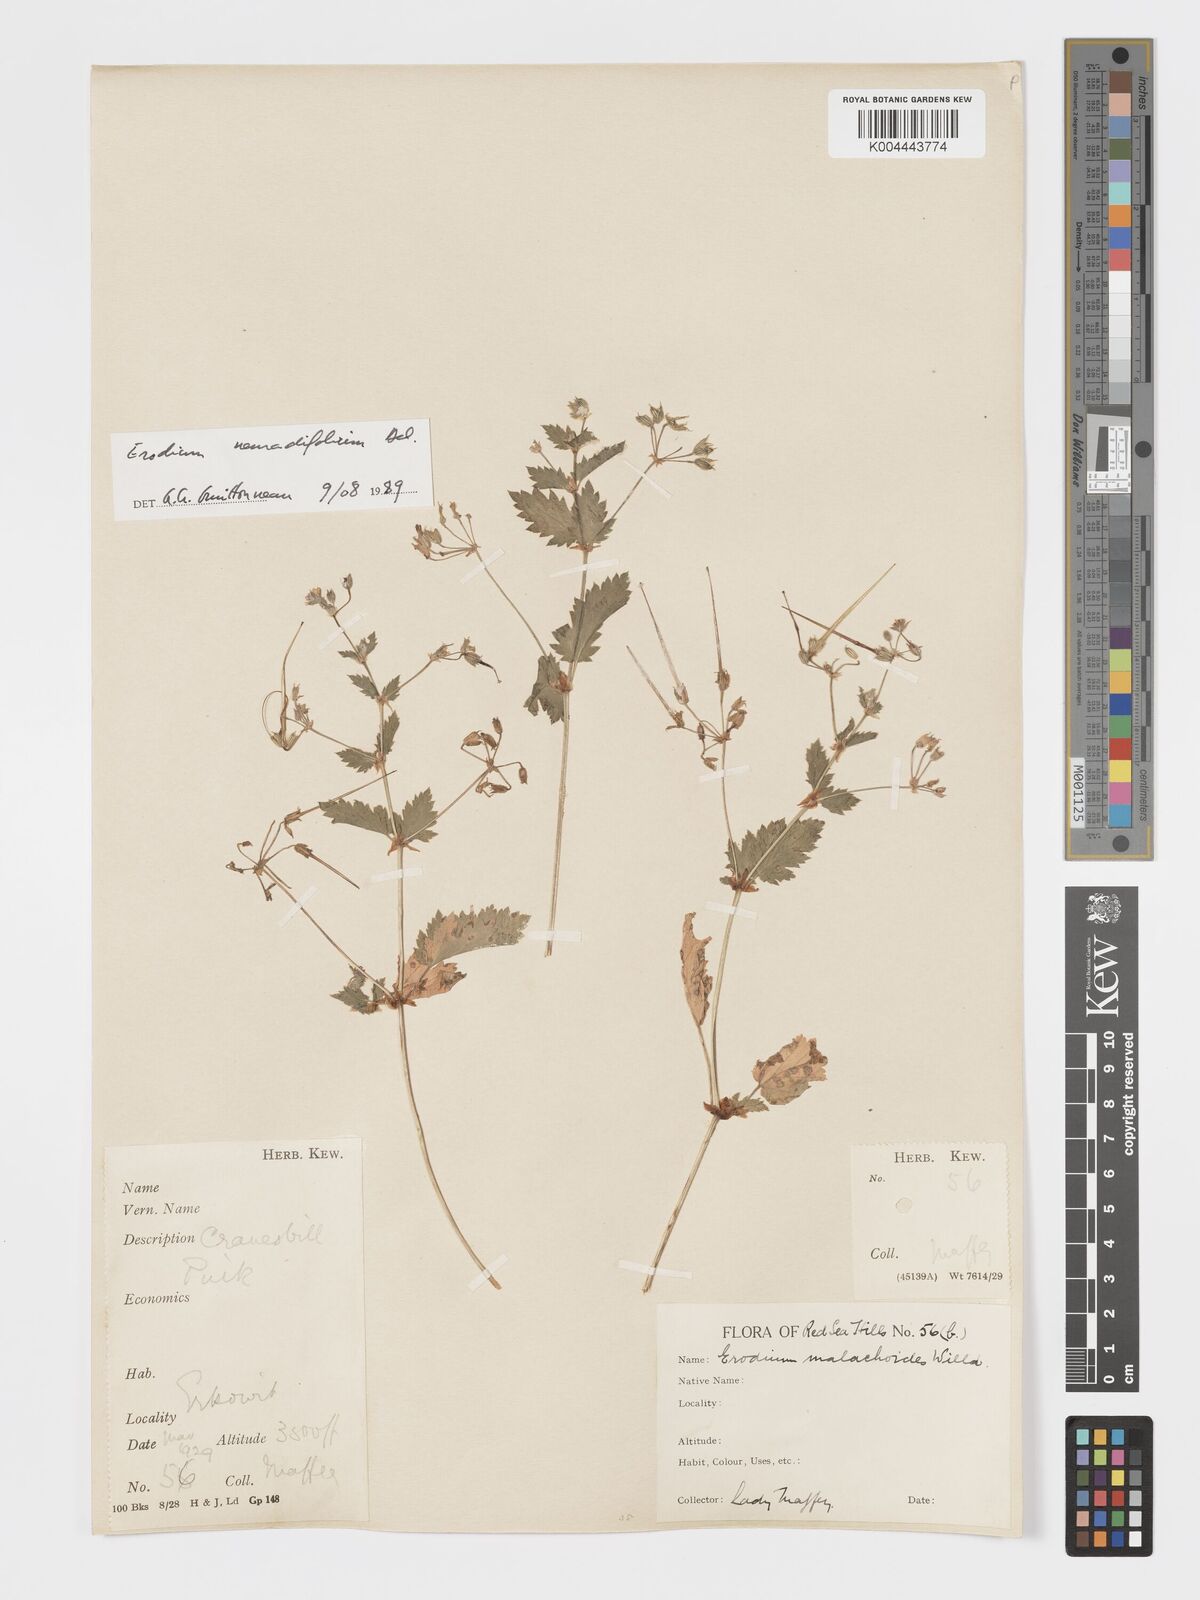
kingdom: Plantae
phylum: Tracheophyta
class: Magnoliopsida
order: Geraniales
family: Geraniaceae
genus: Erodium
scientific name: Erodium neuradifolium
